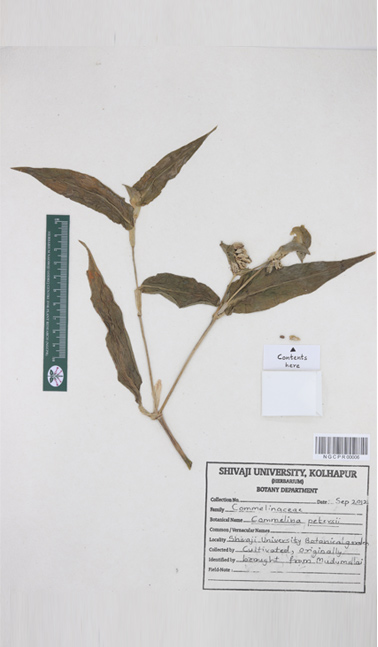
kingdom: Plantae
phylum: Tracheophyta
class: Liliopsida
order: Commelinales
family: Commelinaceae
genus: Commelina
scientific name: Commelina petersii
